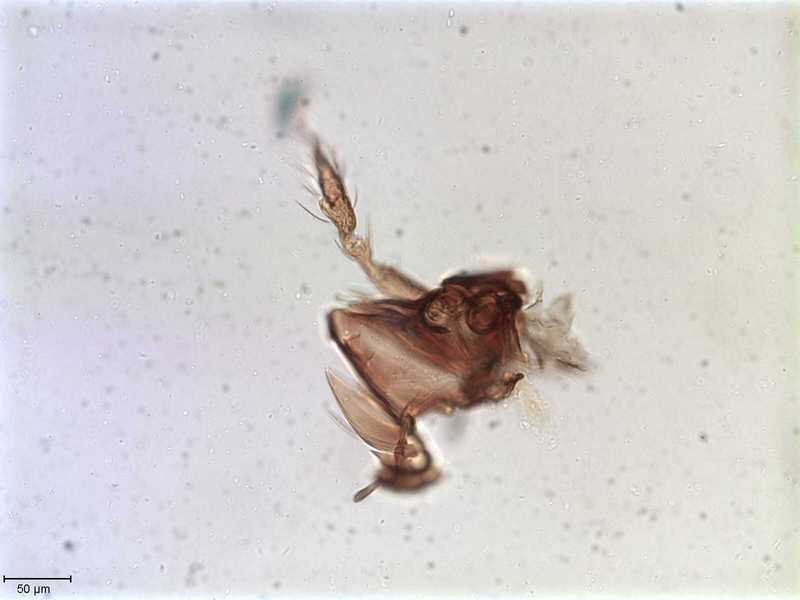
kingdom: Animalia
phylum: Arthropoda
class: Arachnida
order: Sarcoptiformes
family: Tegoribatidae
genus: Plakoribates
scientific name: Plakoribates multicuspidatus
